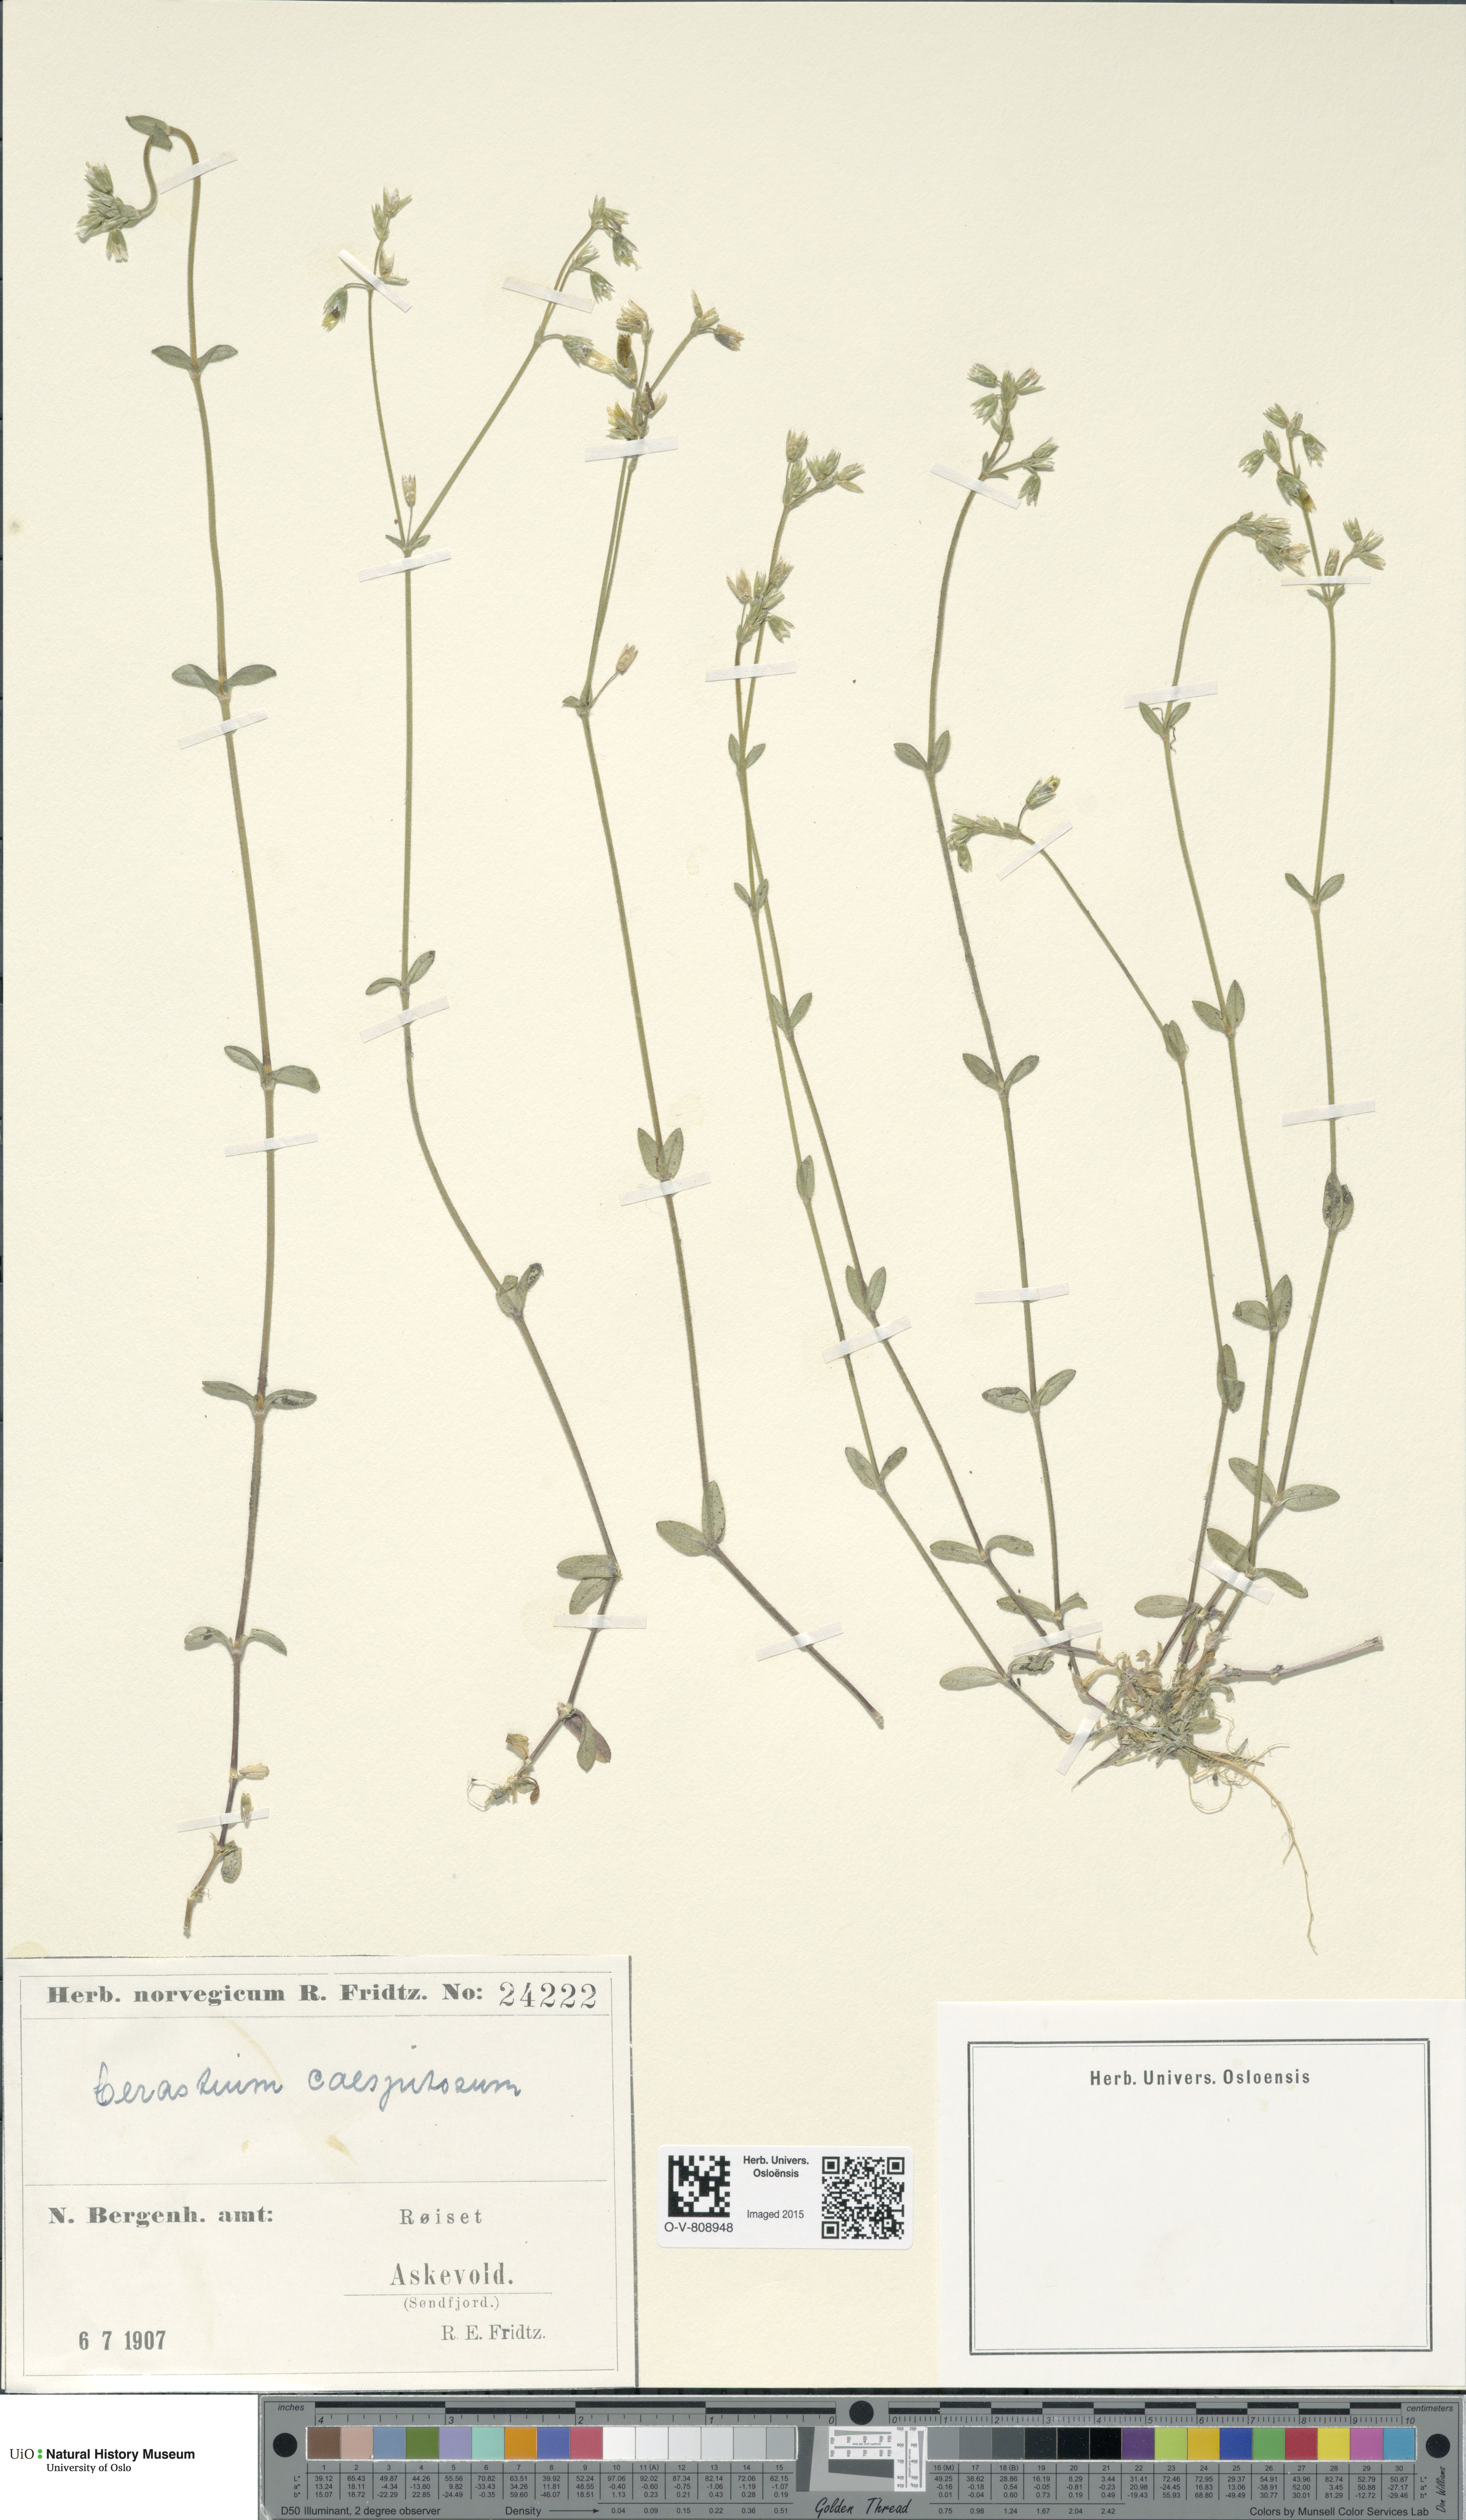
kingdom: Plantae
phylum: Tracheophyta
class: Magnoliopsida
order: Caryophyllales
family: Caryophyllaceae
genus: Cerastium
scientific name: Cerastium holosteoides
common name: Big chickweed
